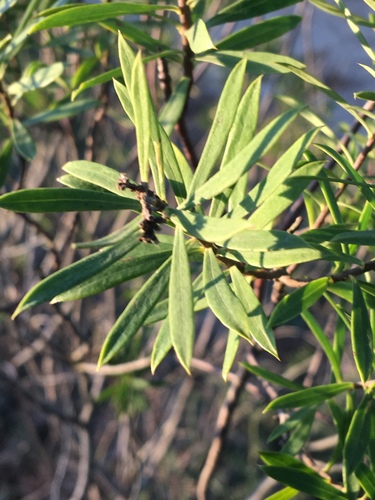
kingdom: Plantae
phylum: Tracheophyta
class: Magnoliopsida
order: Malvales
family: Thymelaeaceae
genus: Daphne
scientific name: Daphne gnidium
